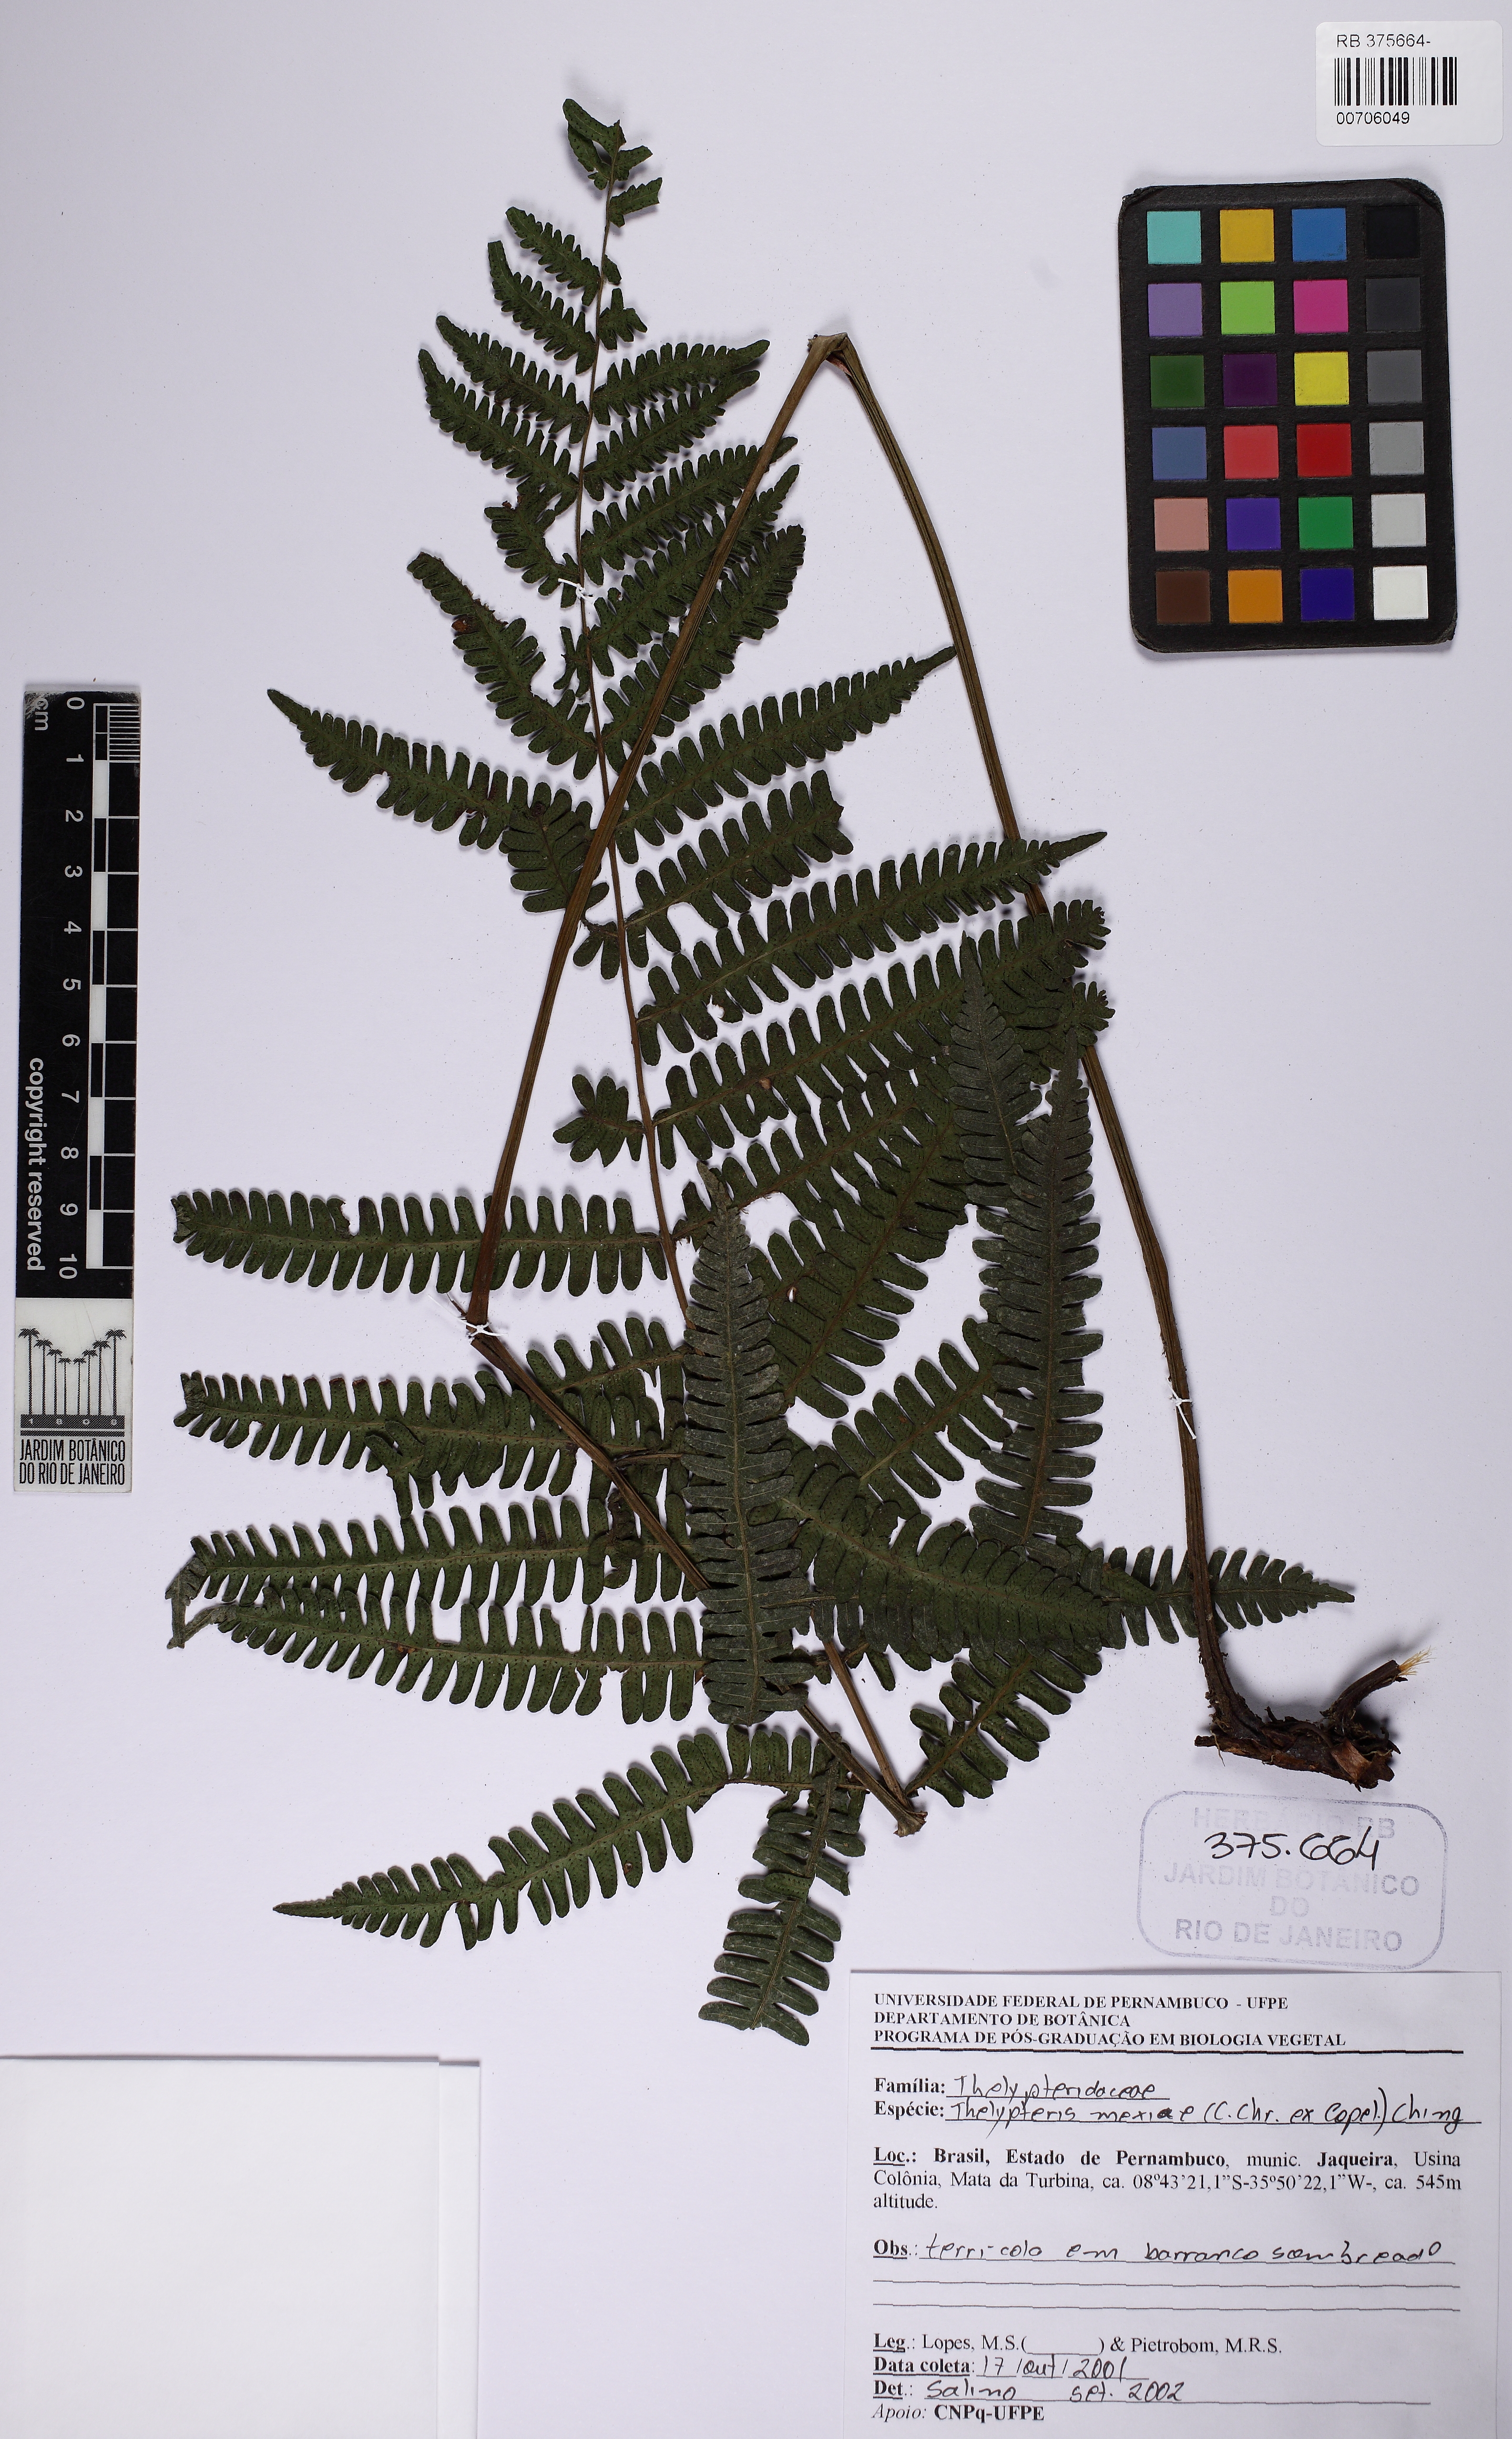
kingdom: Plantae
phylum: Tracheophyta
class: Polypodiopsida
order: Polypodiales
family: Thelypteridaceae
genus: Steiropteris
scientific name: Steiropteris mexiae
